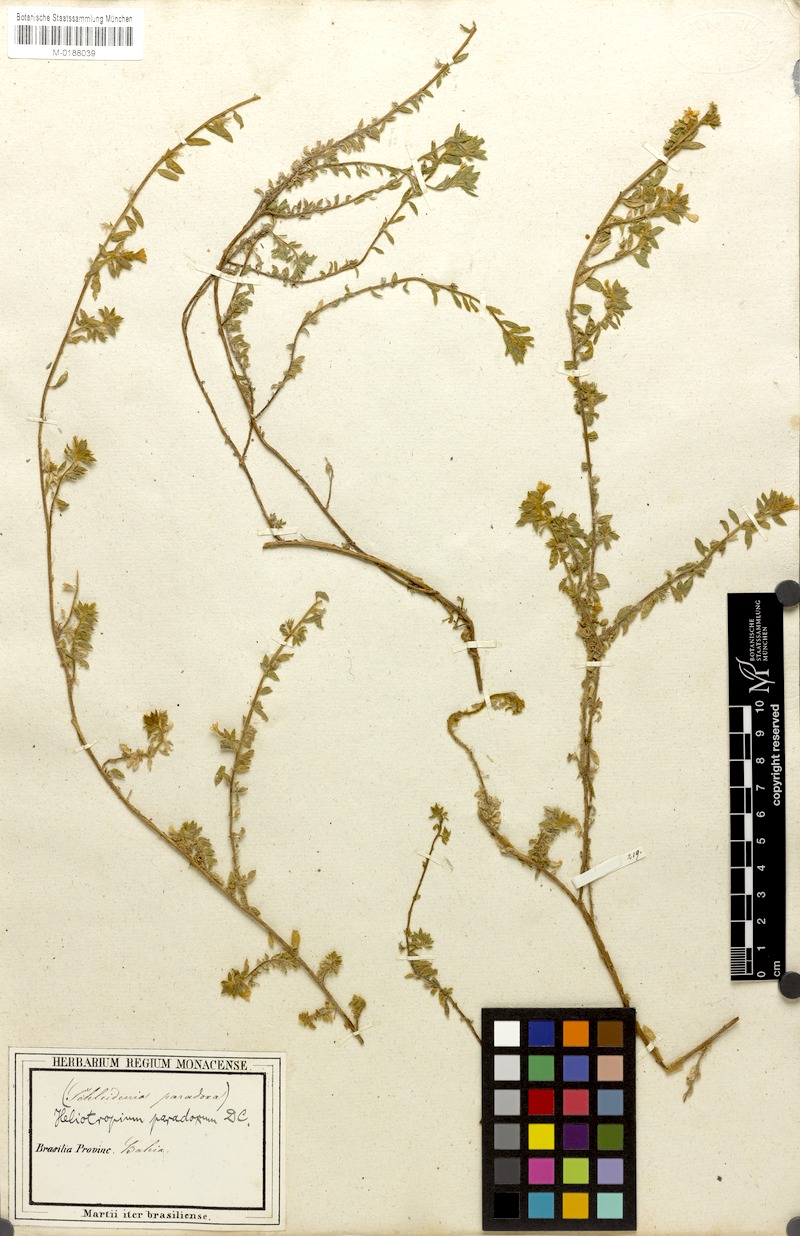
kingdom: Plantae
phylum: Tracheophyta
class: Magnoliopsida
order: Boraginales
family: Heliotropiaceae
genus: Euploca
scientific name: Euploca paradoxa
